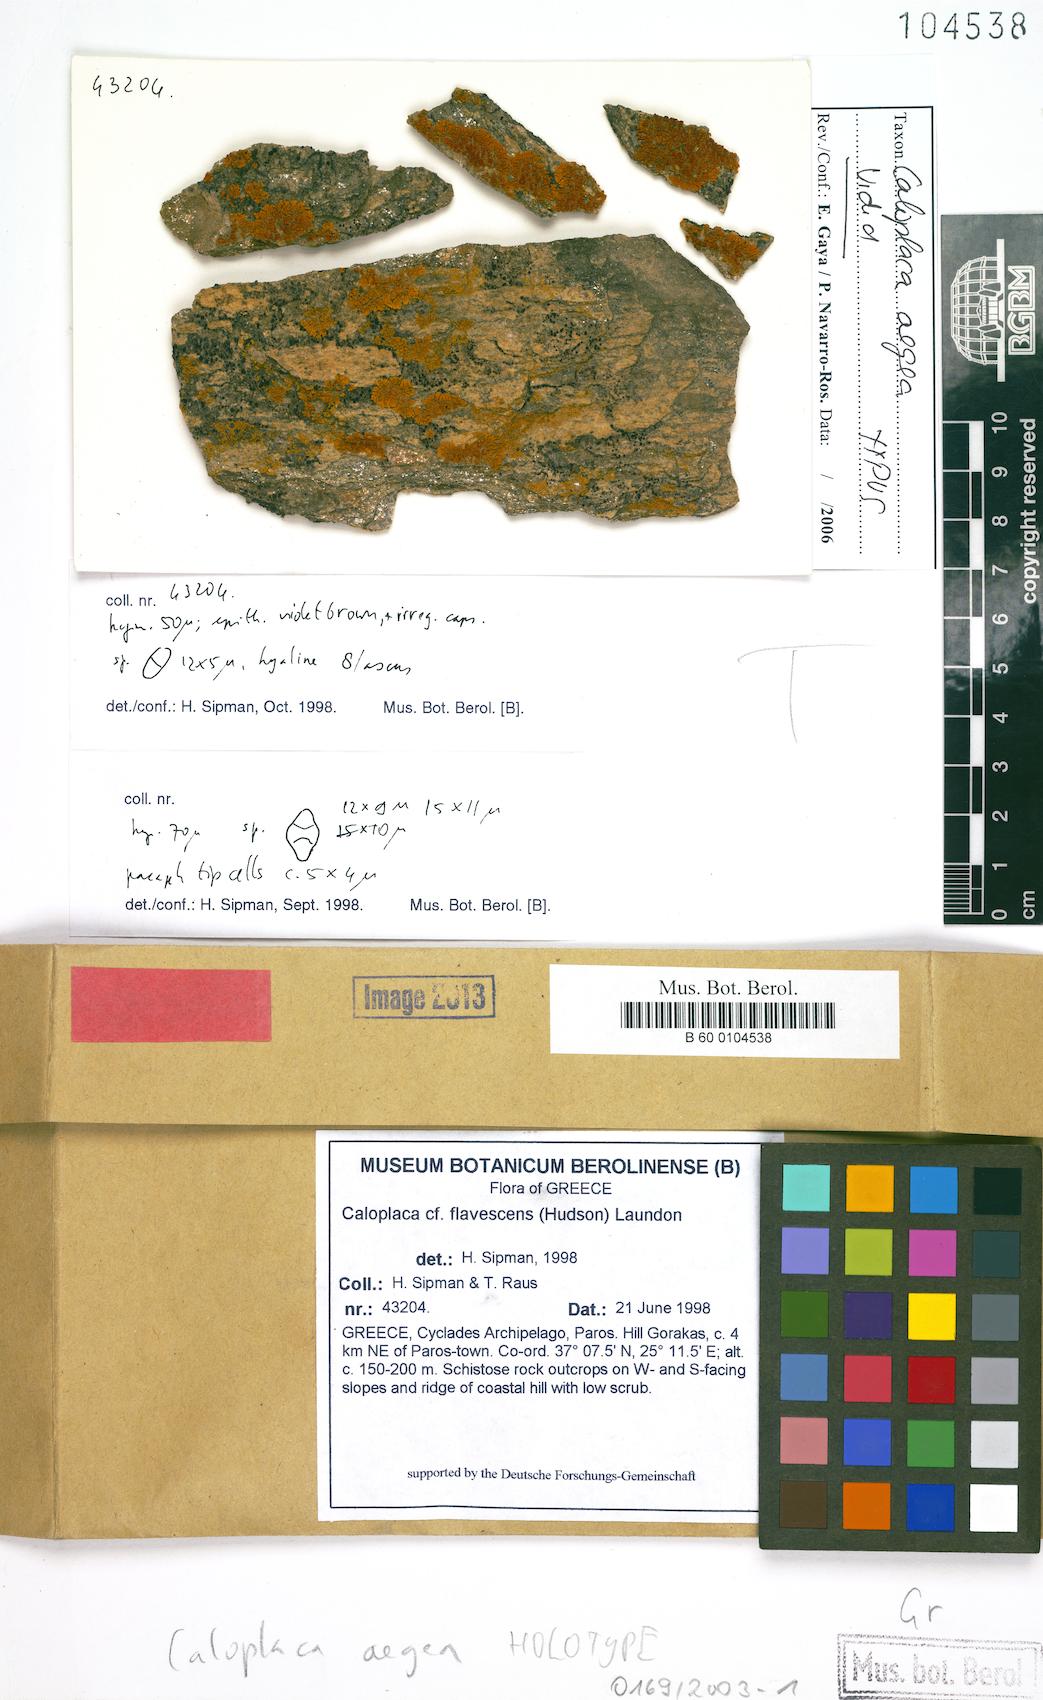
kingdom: Fungi
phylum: Ascomycota
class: Lecanoromycetes
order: Teloschistales
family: Teloschistaceae
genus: Variospora
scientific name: Variospora aegaea
